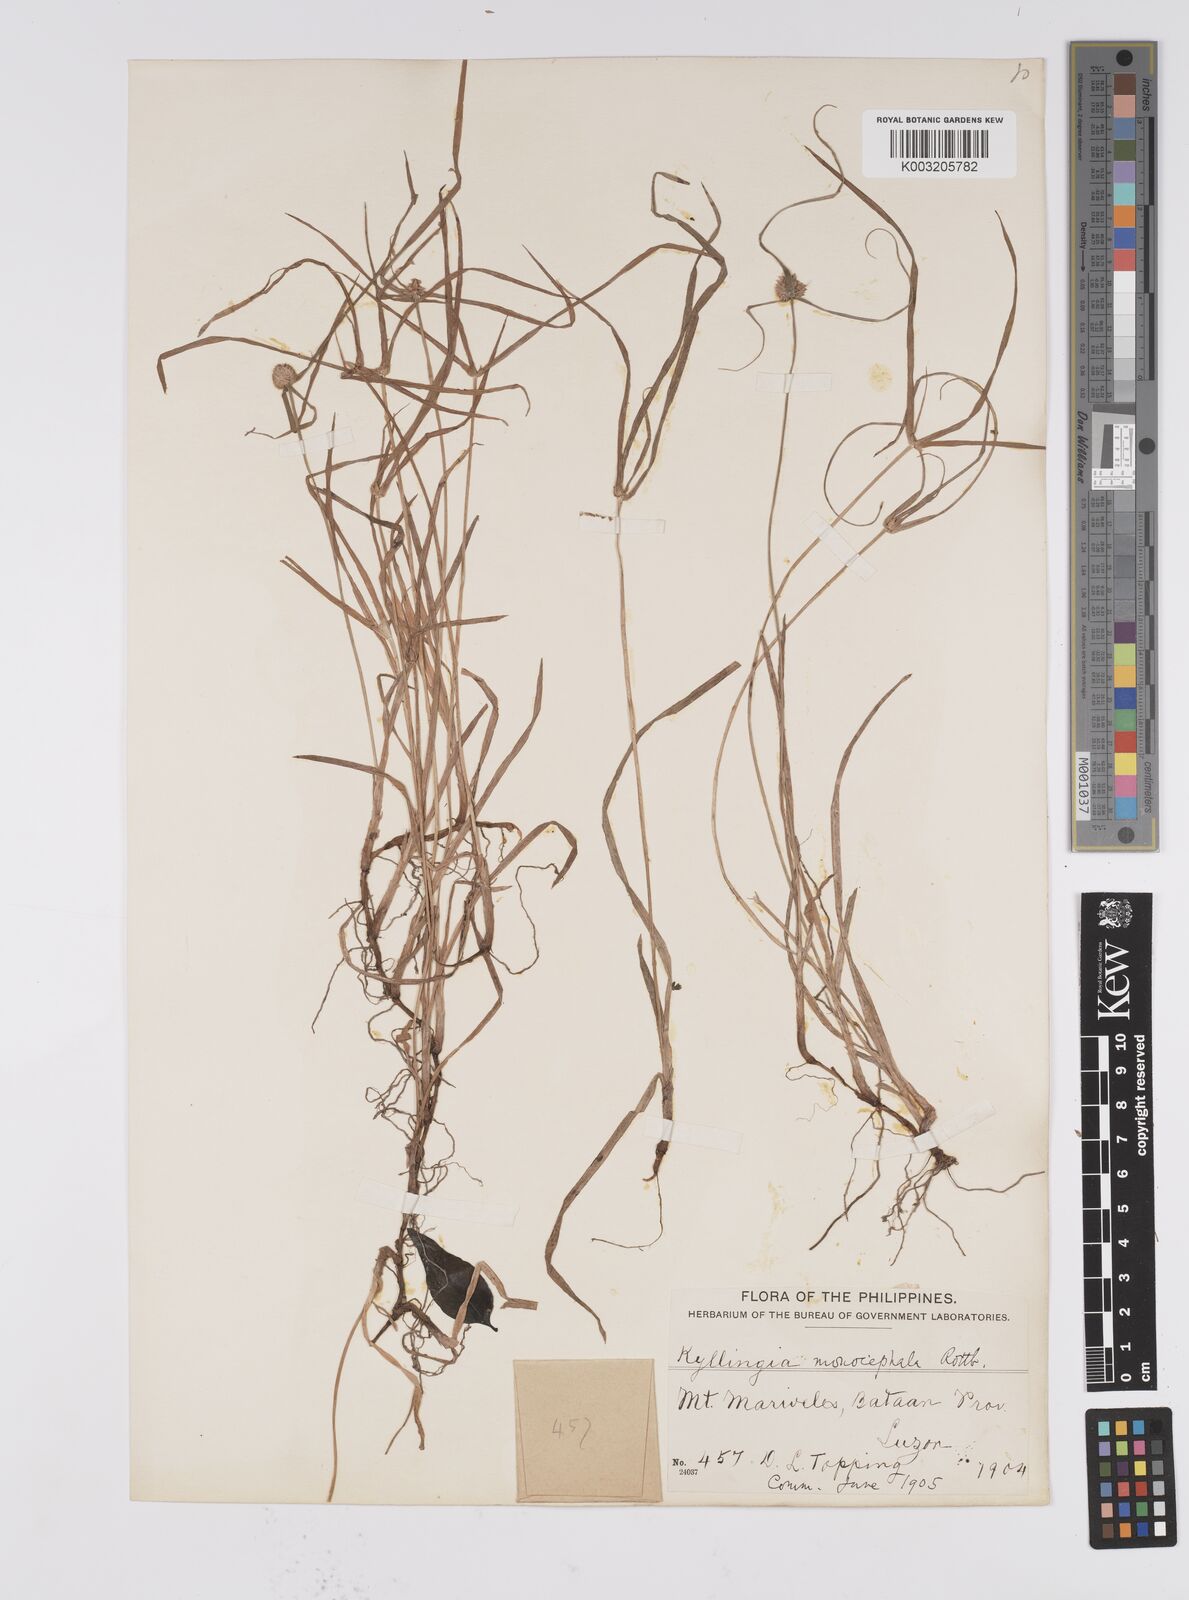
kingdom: Plantae
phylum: Tracheophyta
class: Liliopsida
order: Poales
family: Cyperaceae
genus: Cyperus
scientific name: Cyperus nemoralis
